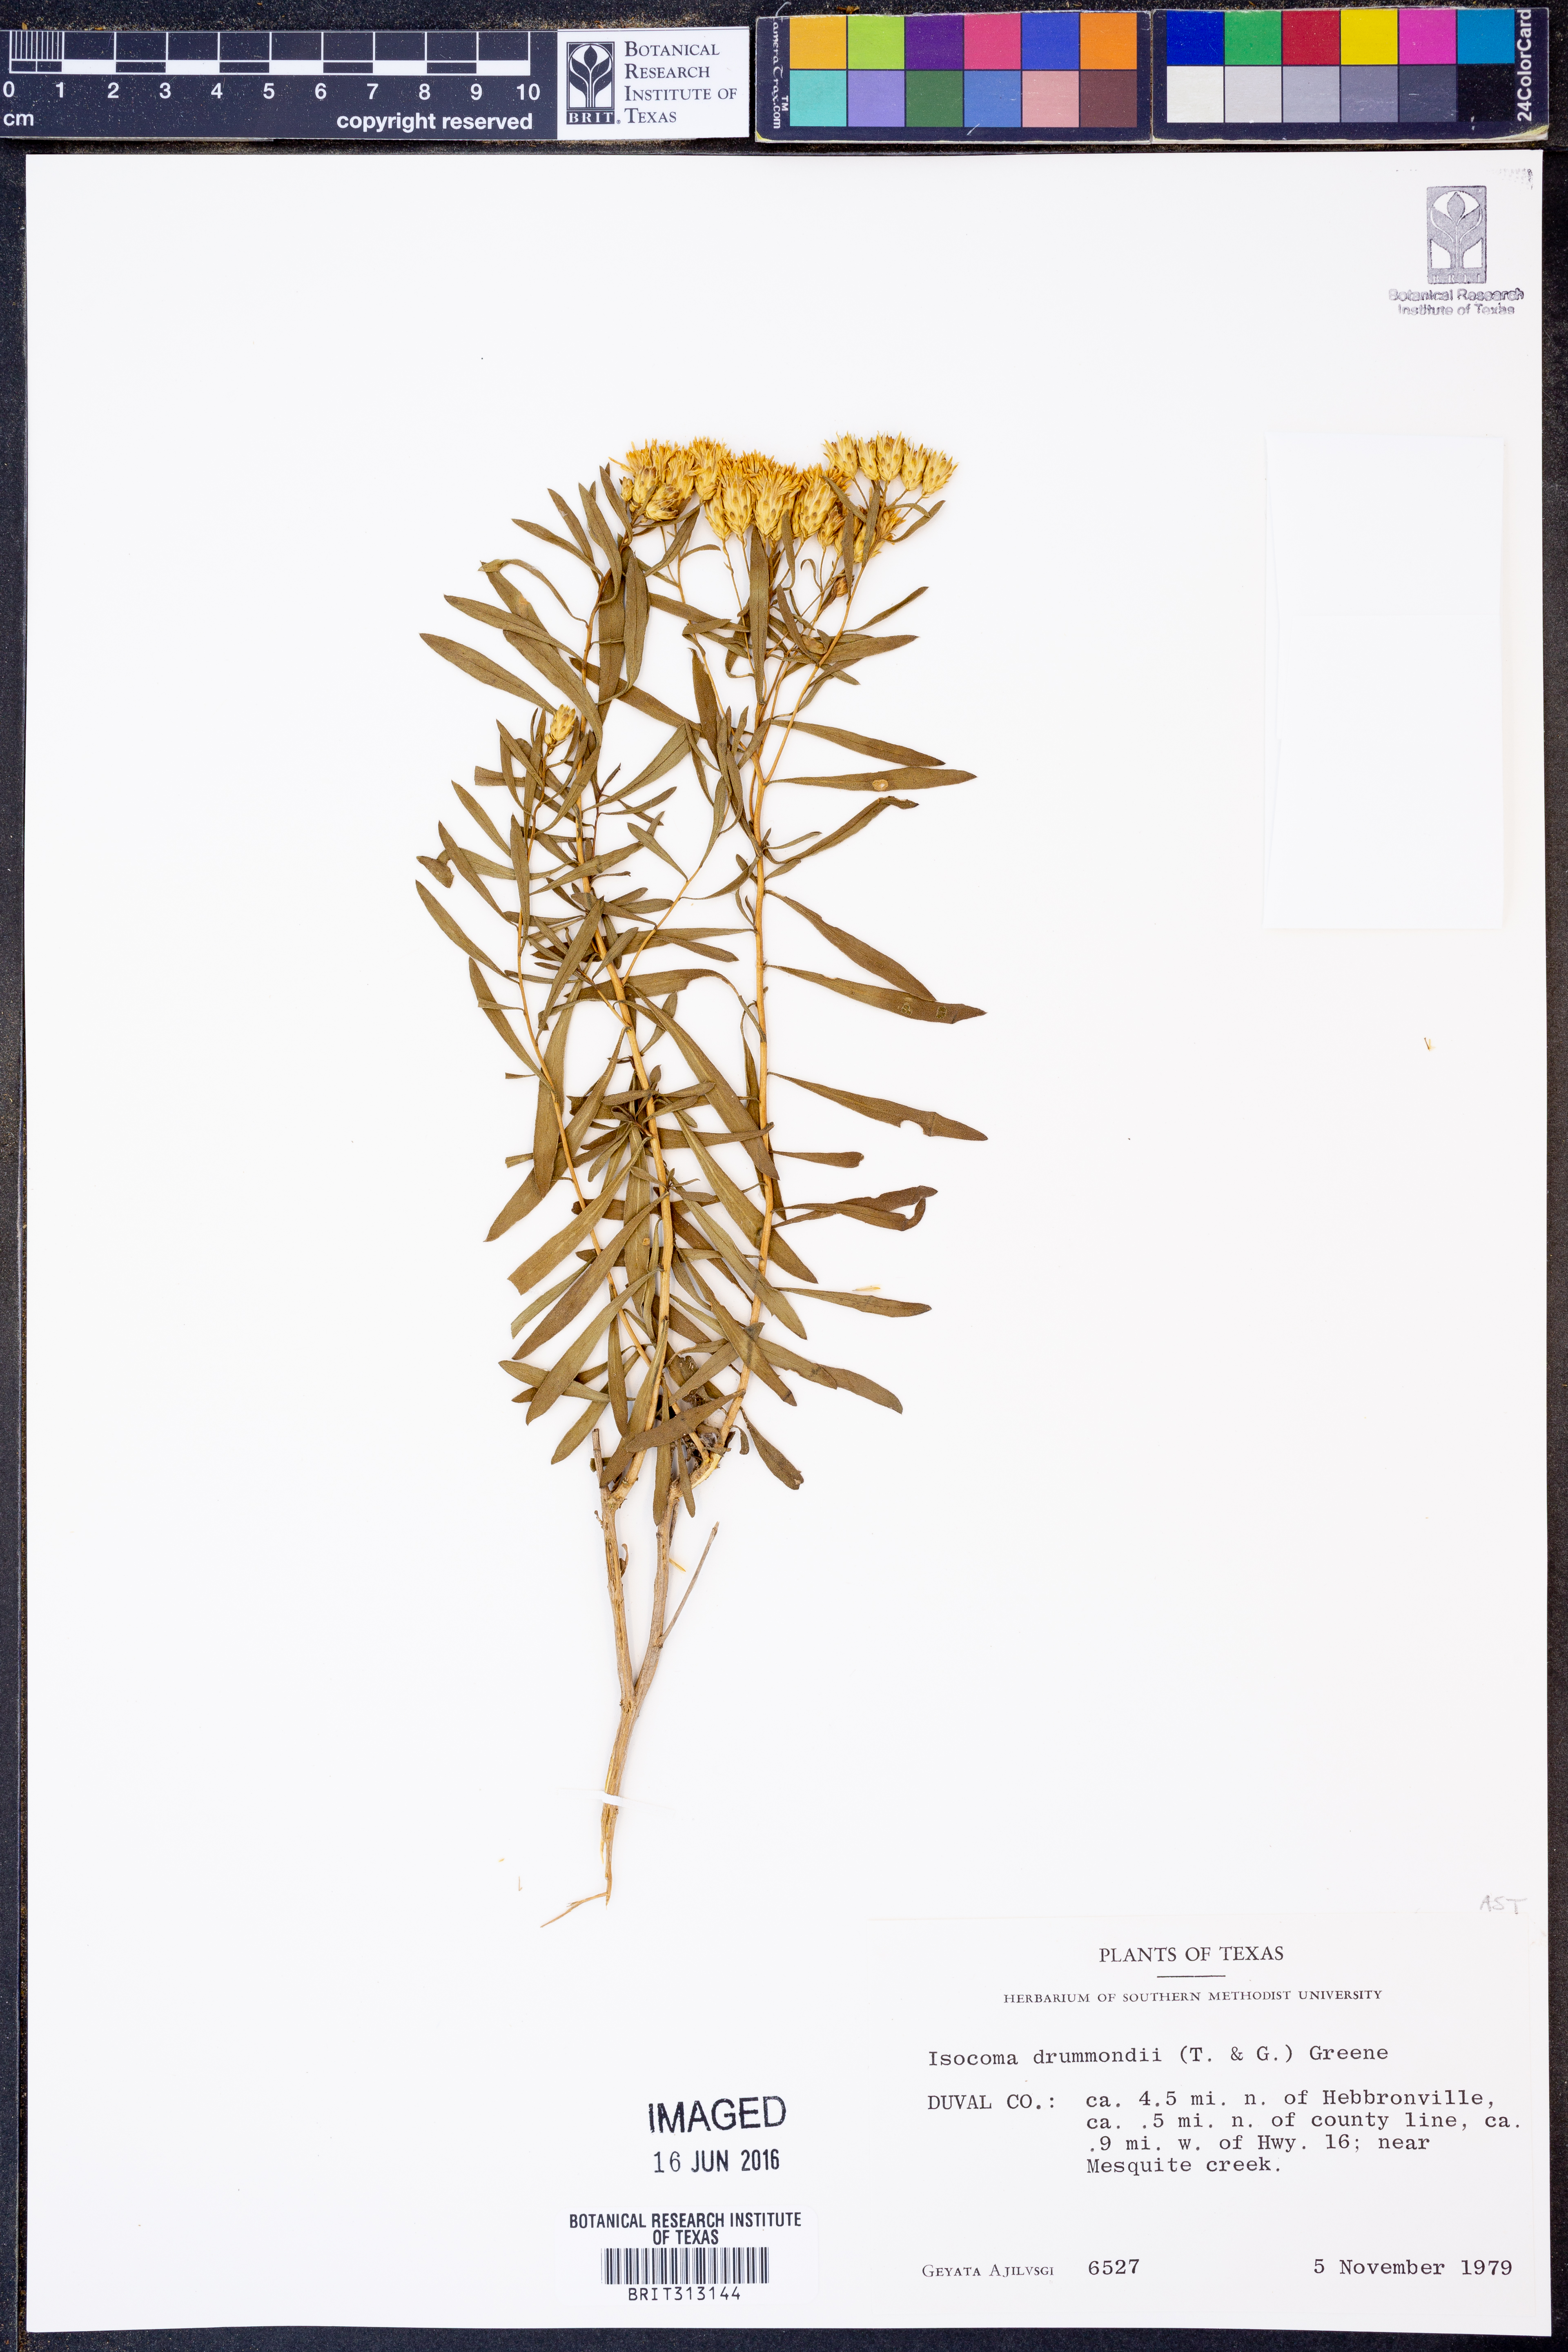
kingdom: Plantae
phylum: Tracheophyta
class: Magnoliopsida
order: Asterales
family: Asteraceae
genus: Isocoma
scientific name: Isocoma drummondii
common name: Drummond's jimmyweed
